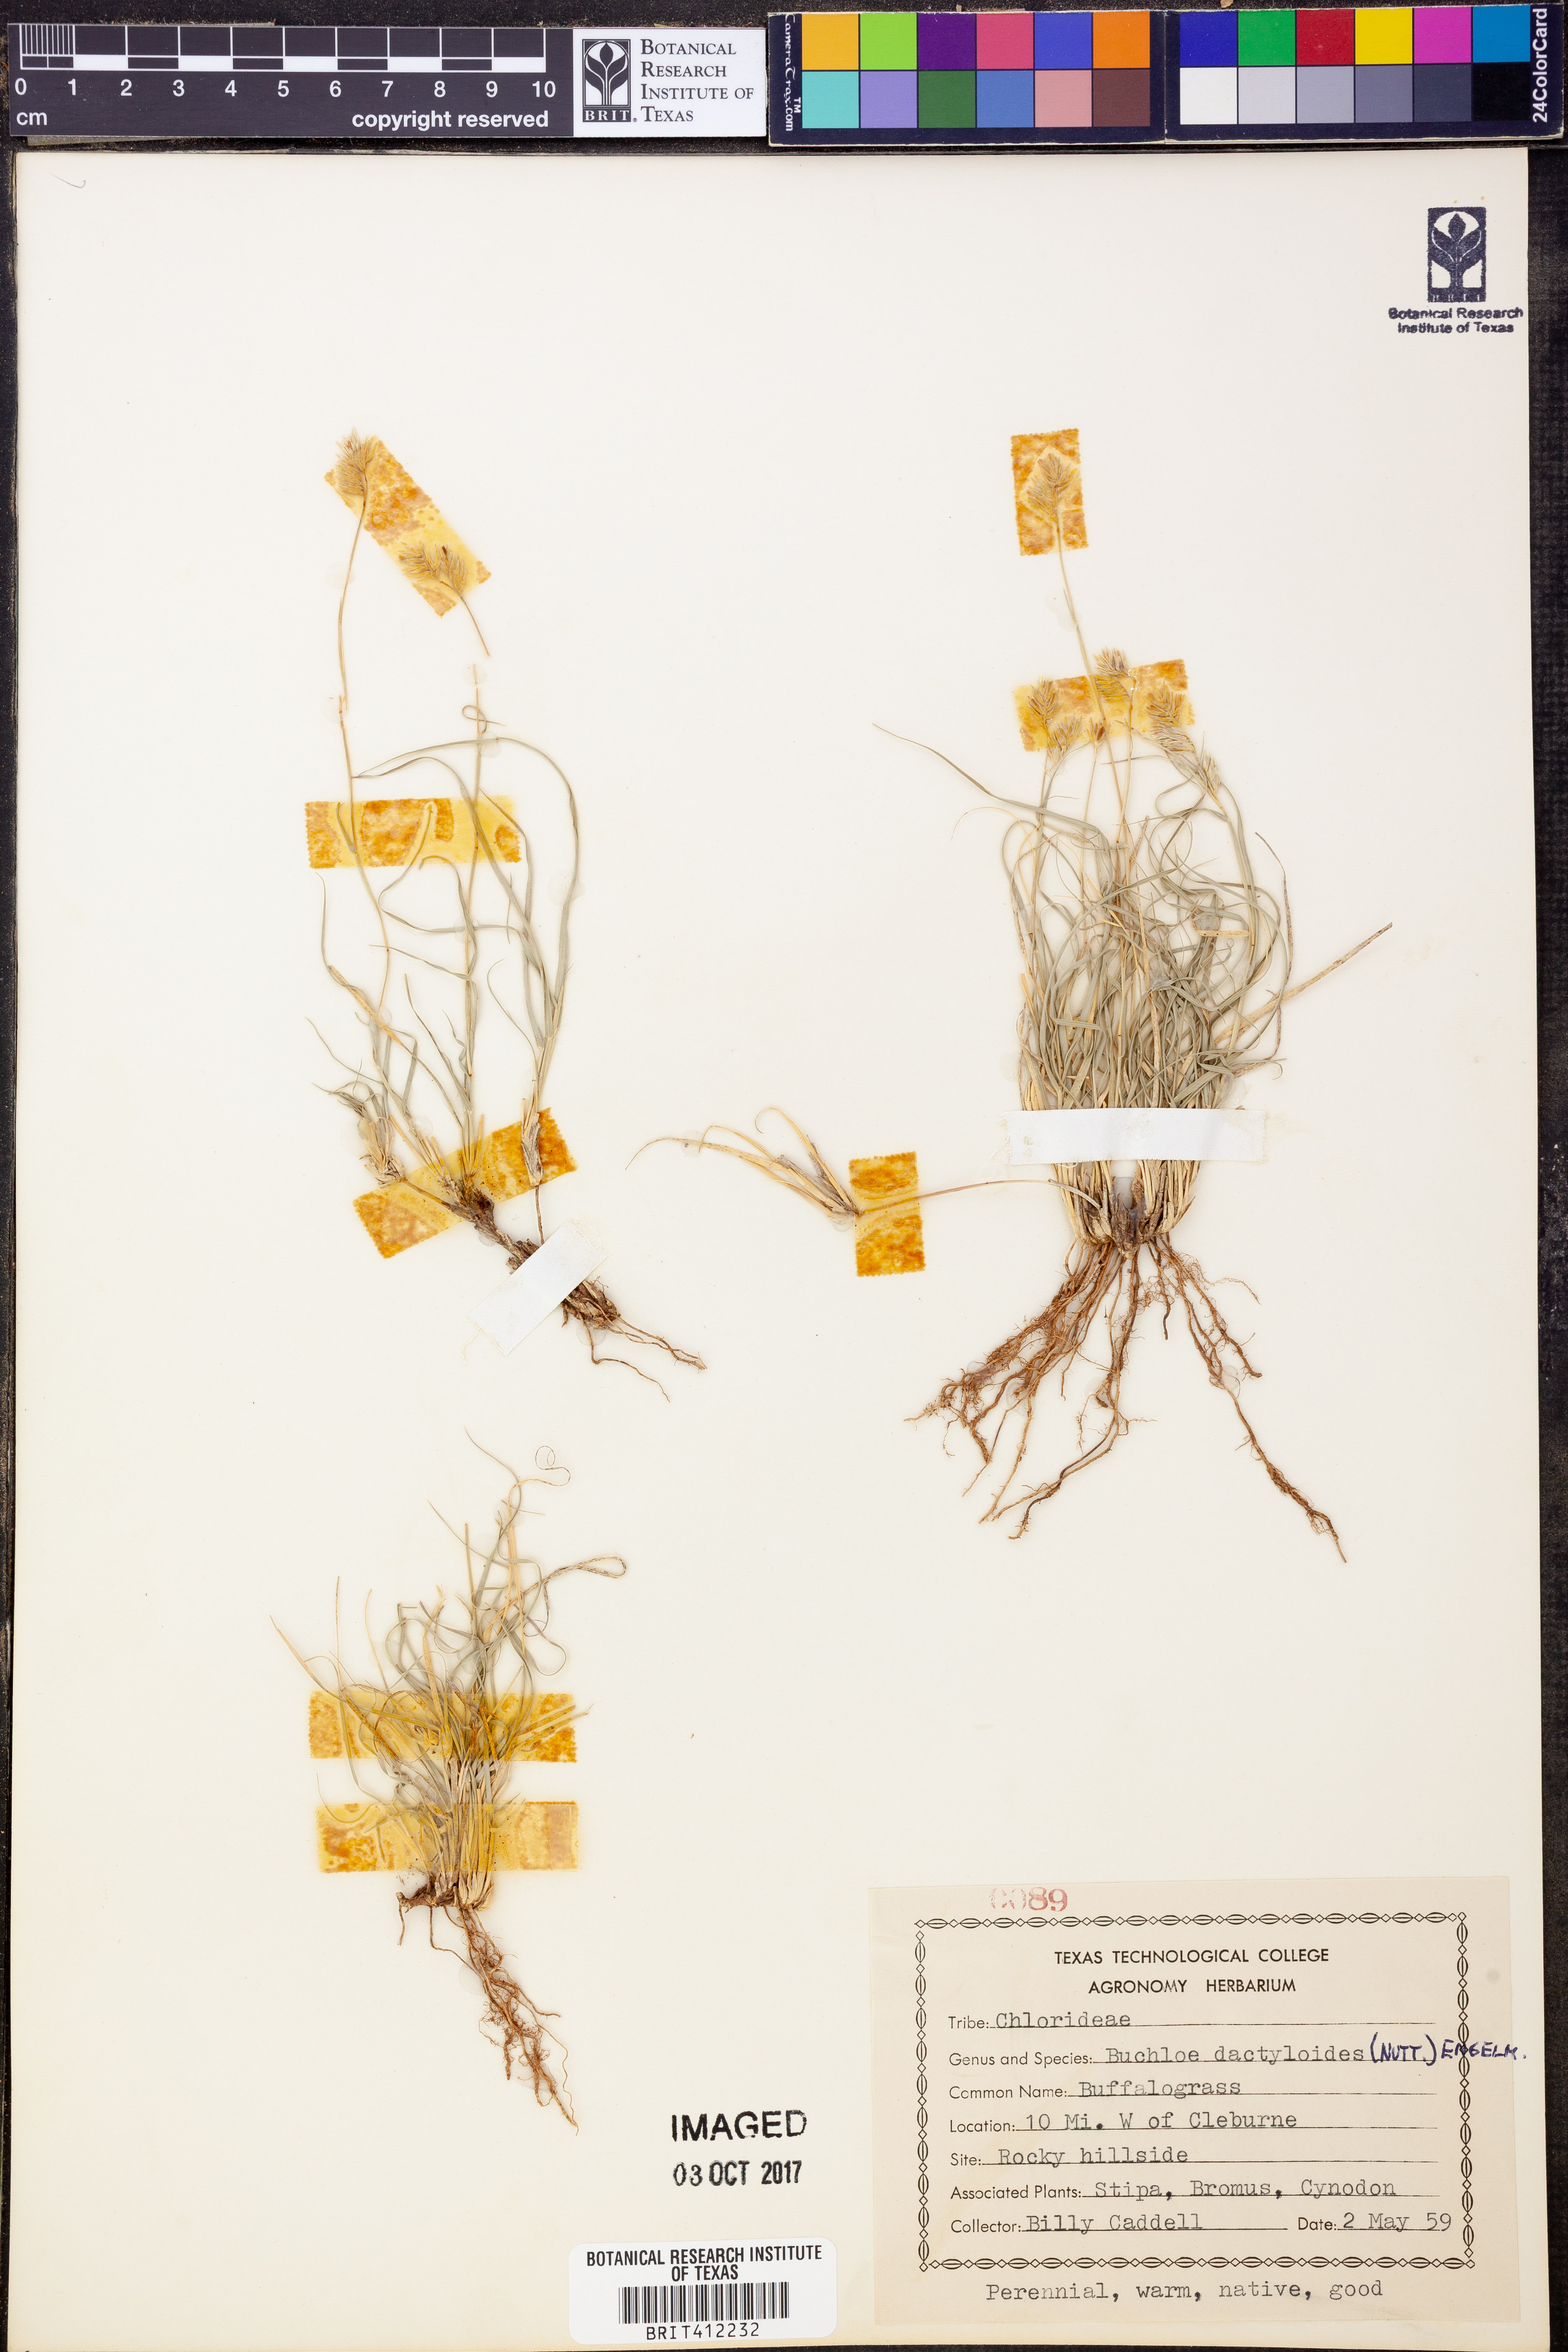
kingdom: Plantae
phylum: Tracheophyta
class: Liliopsida
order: Poales
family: Poaceae
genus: Bouteloua
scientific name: Bouteloua dactyloides
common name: Buffalo grass
